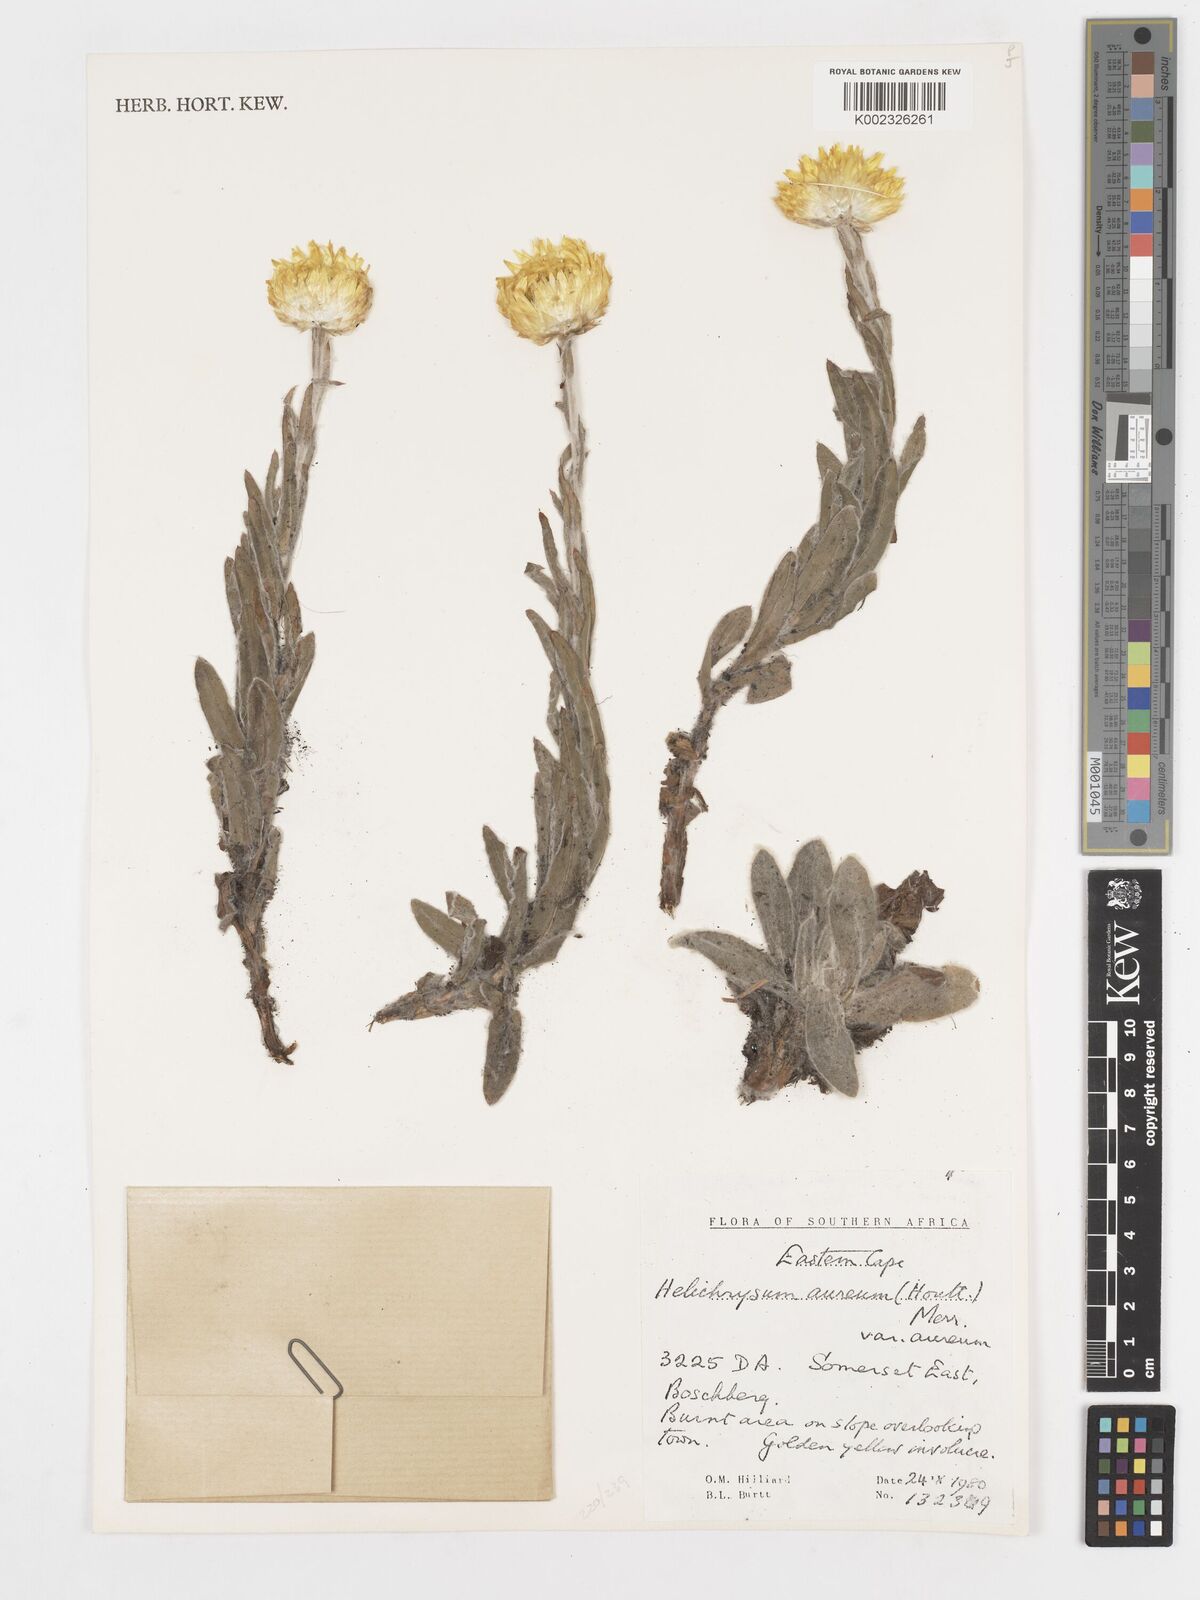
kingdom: Plantae
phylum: Tracheophyta
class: Magnoliopsida
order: Asterales
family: Asteraceae
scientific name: Asteraceae
